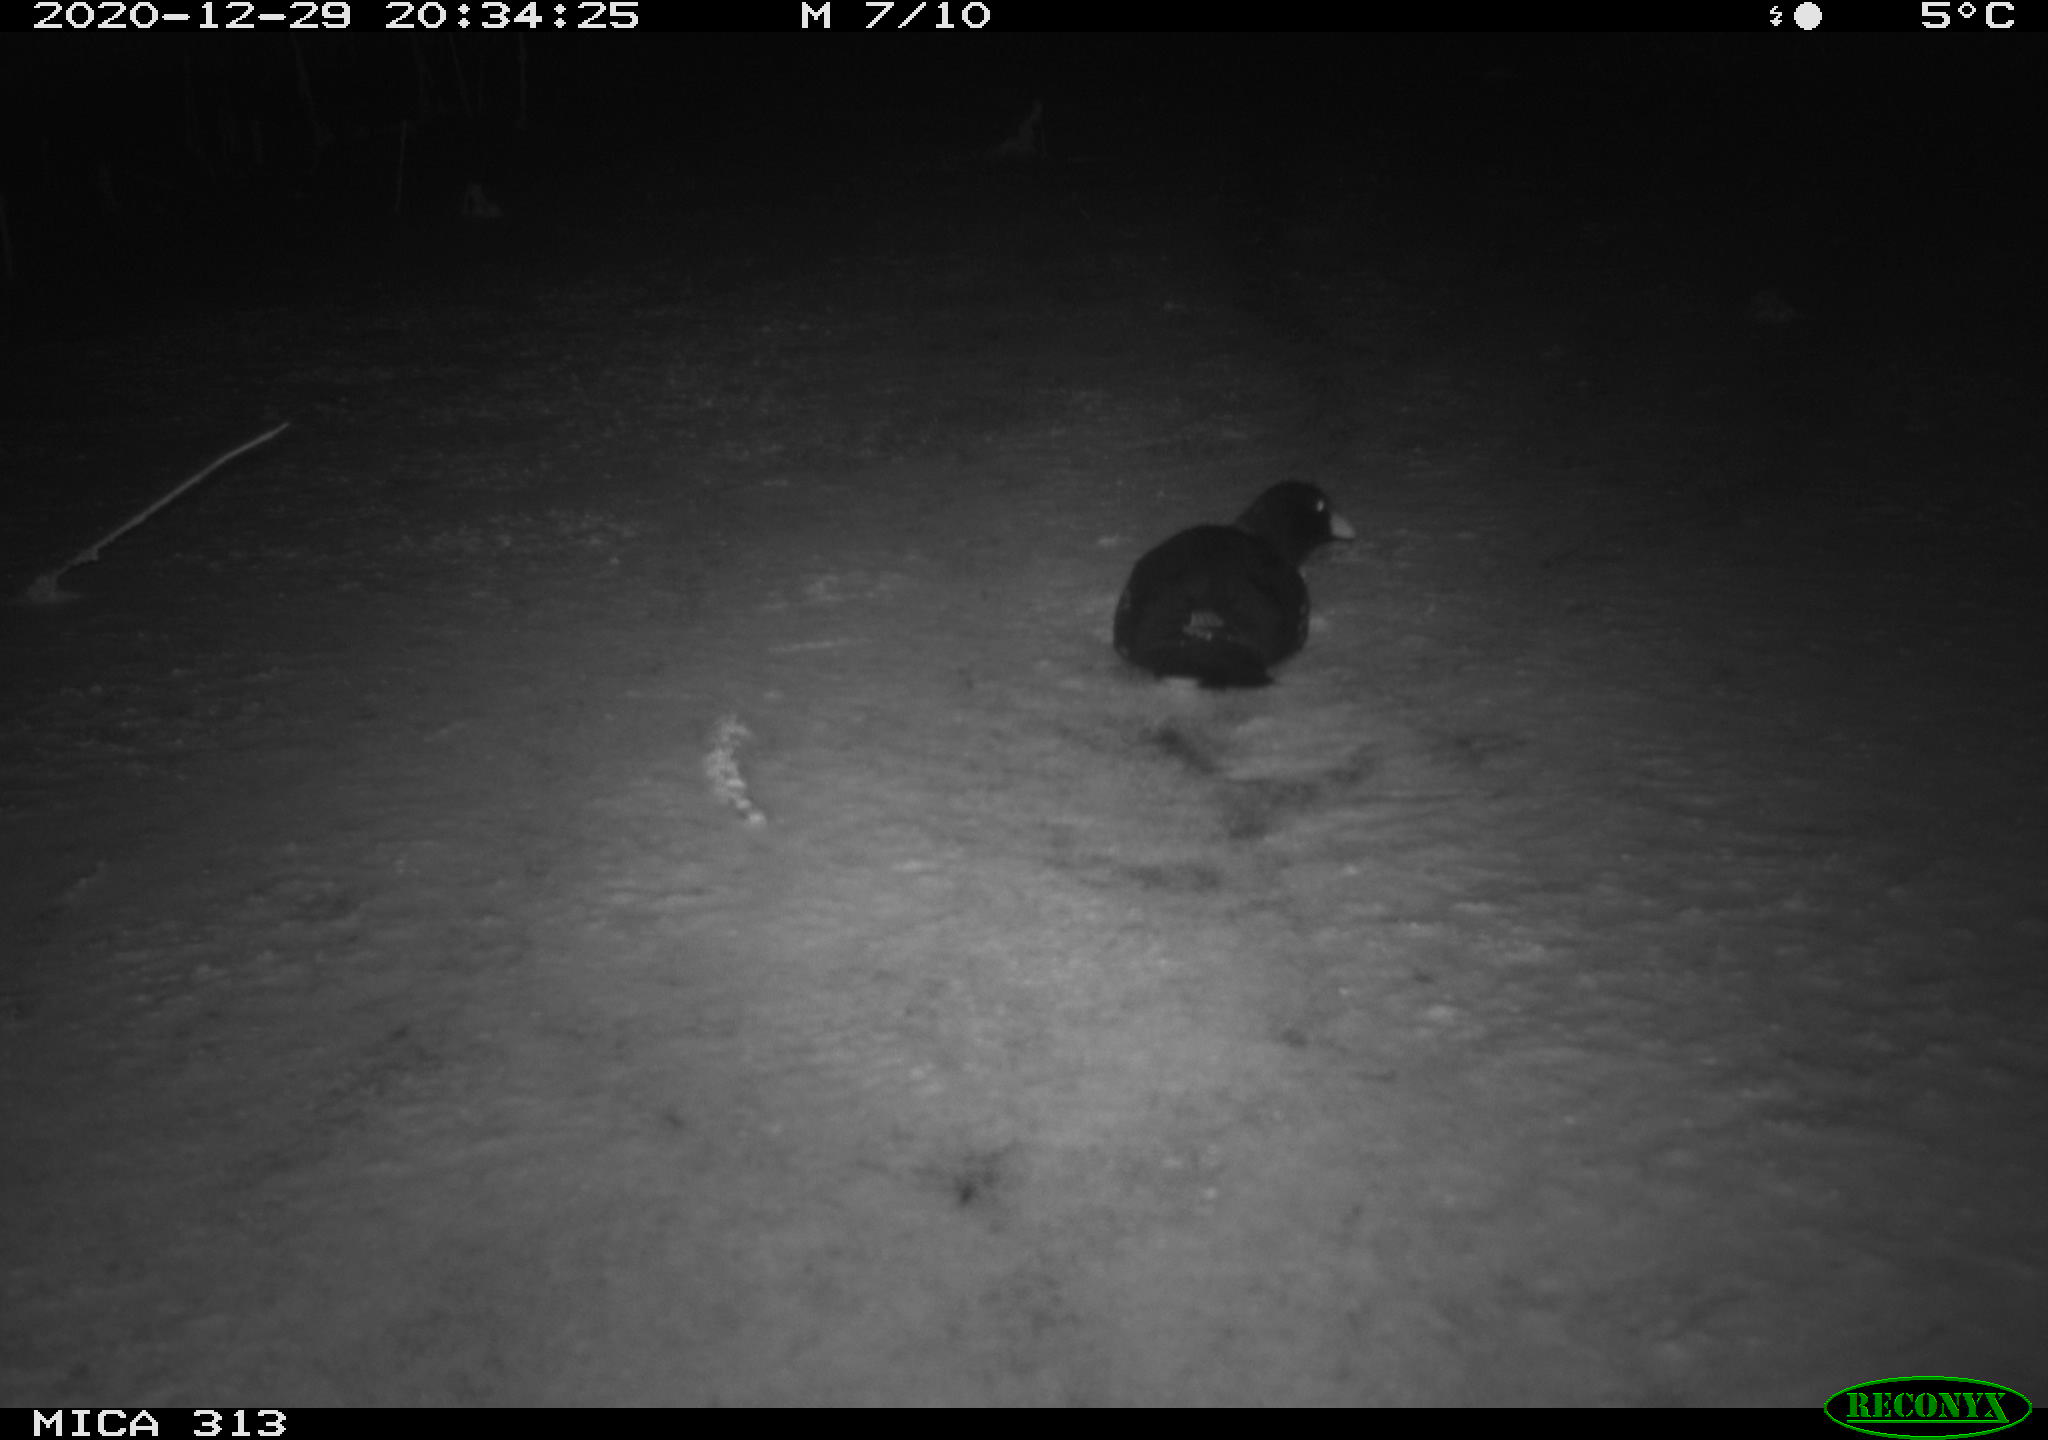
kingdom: Animalia
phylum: Chordata
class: Aves
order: Gruiformes
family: Rallidae
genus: Gallinula
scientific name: Gallinula chloropus
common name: Common moorhen
